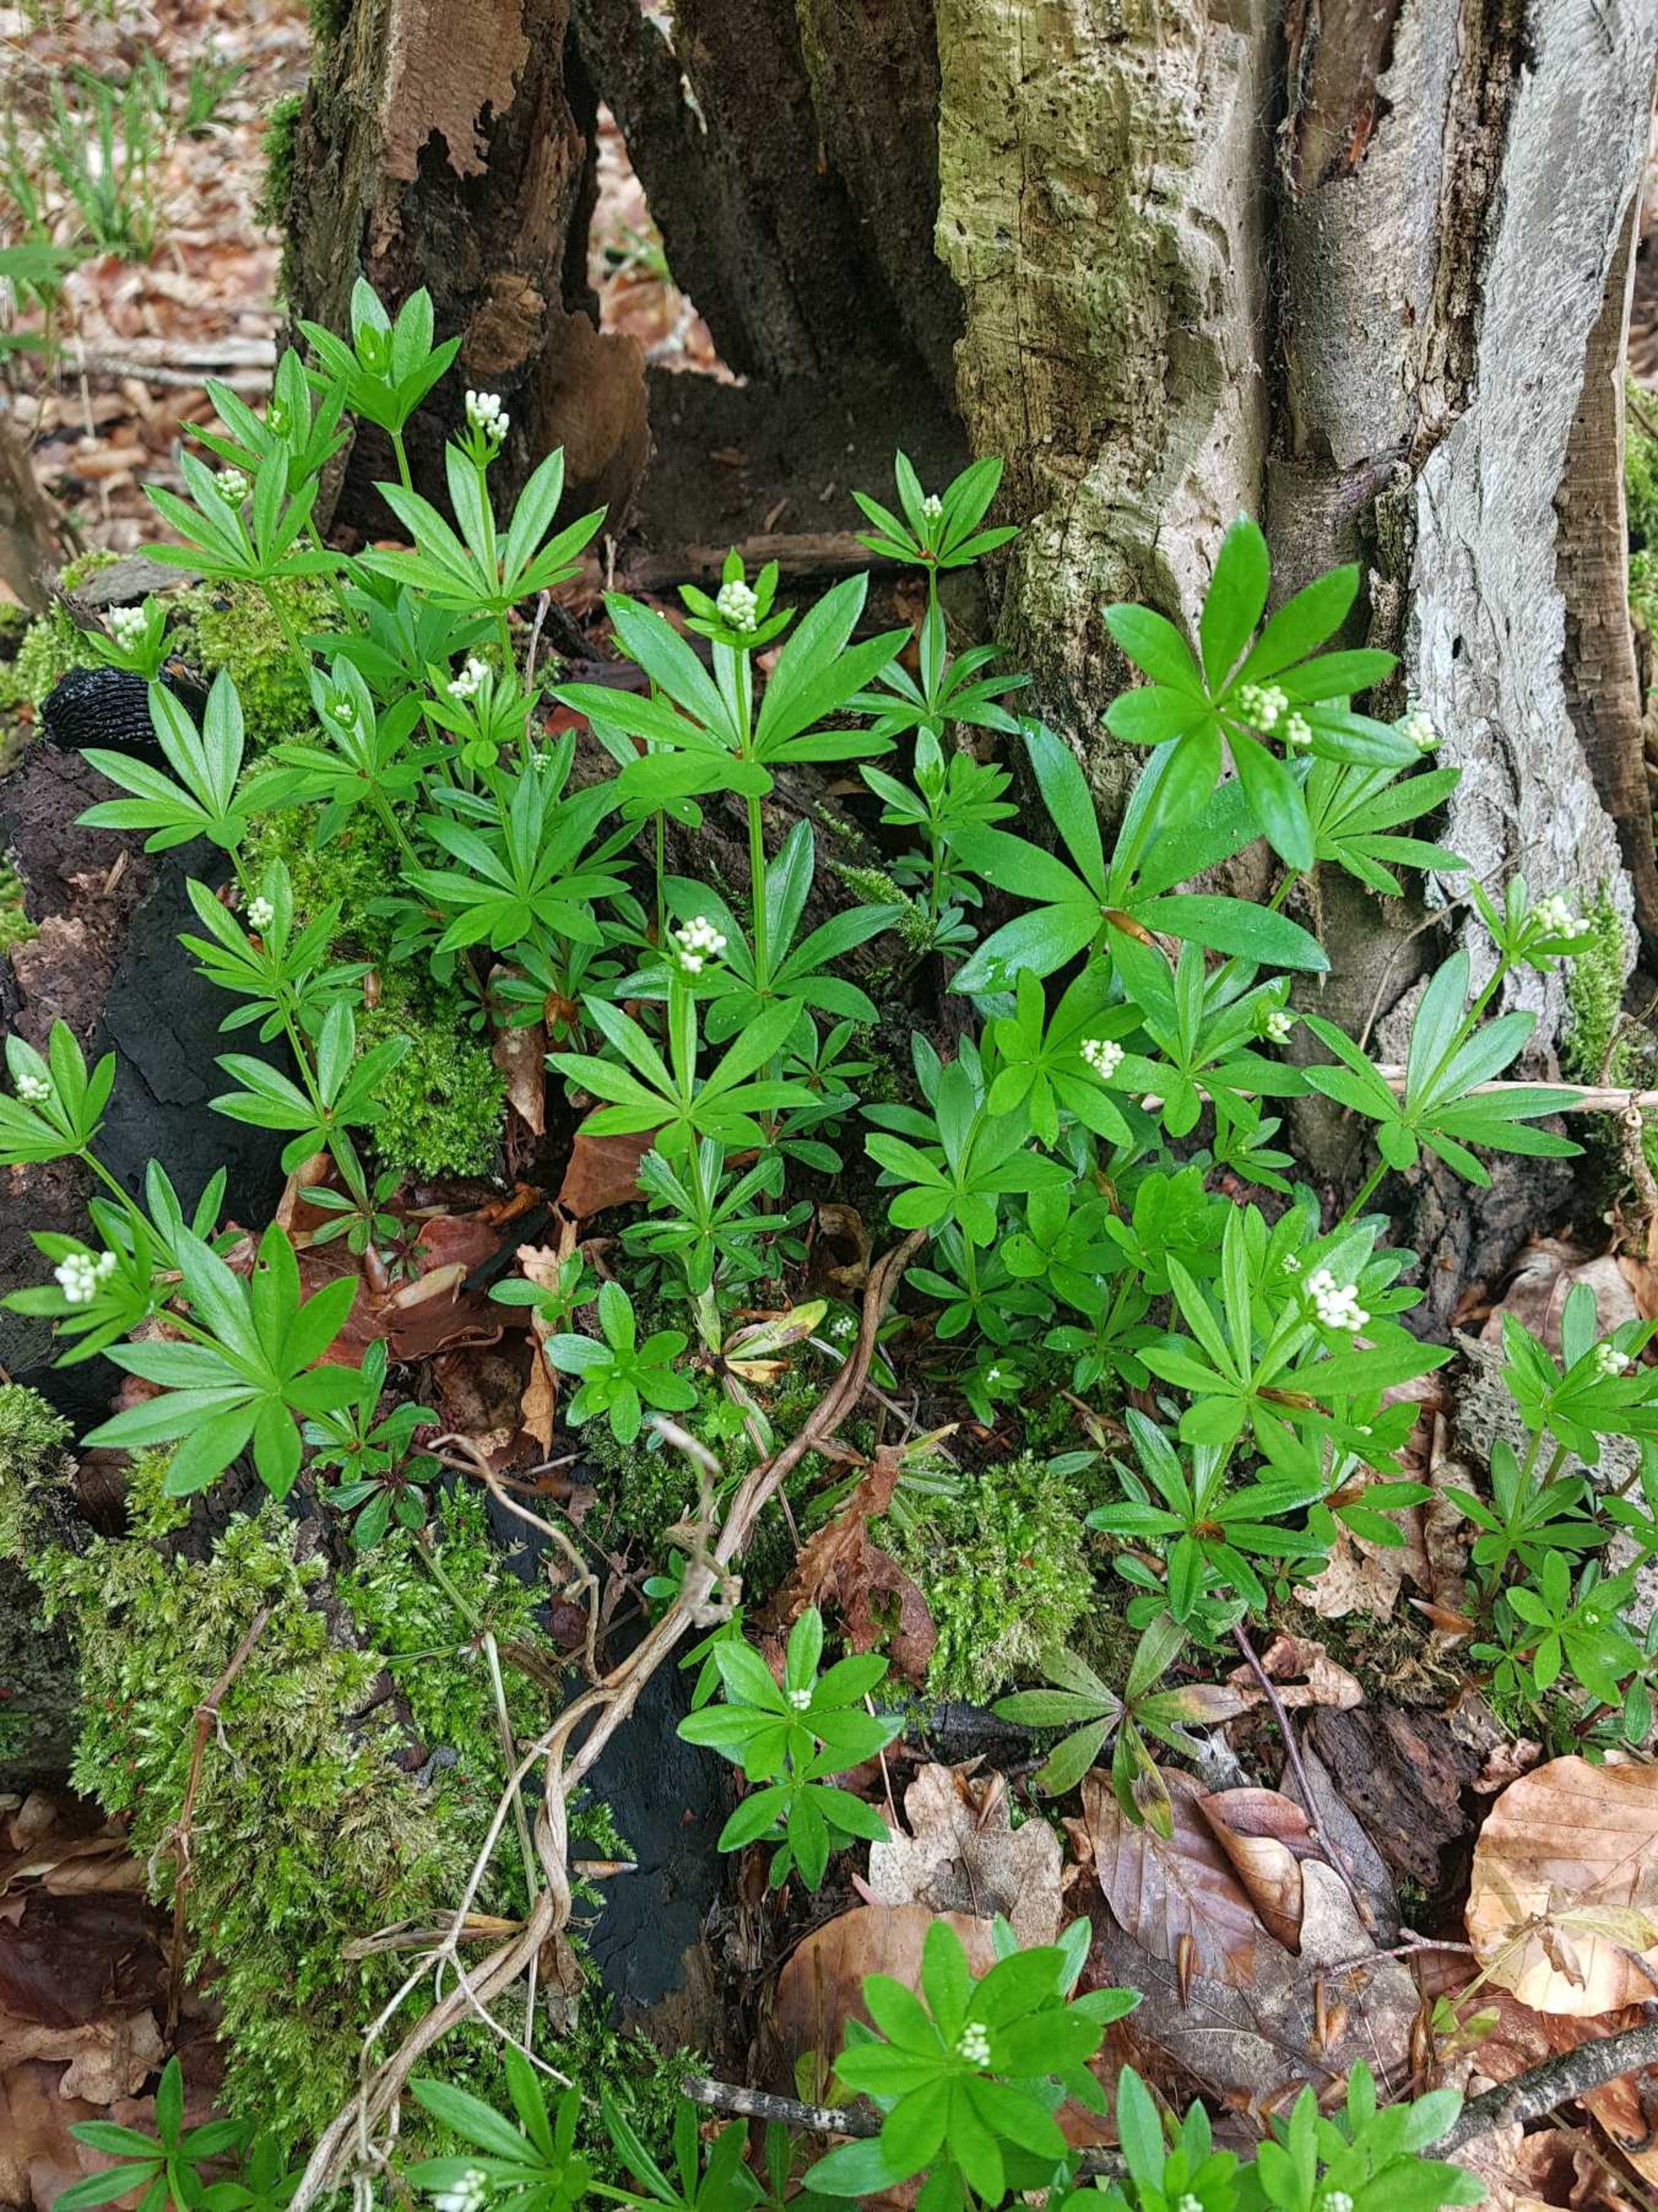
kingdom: Plantae
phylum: Tracheophyta
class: Magnoliopsida
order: Gentianales
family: Rubiaceae
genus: Galium
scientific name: Galium odoratum
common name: Skovmærke
